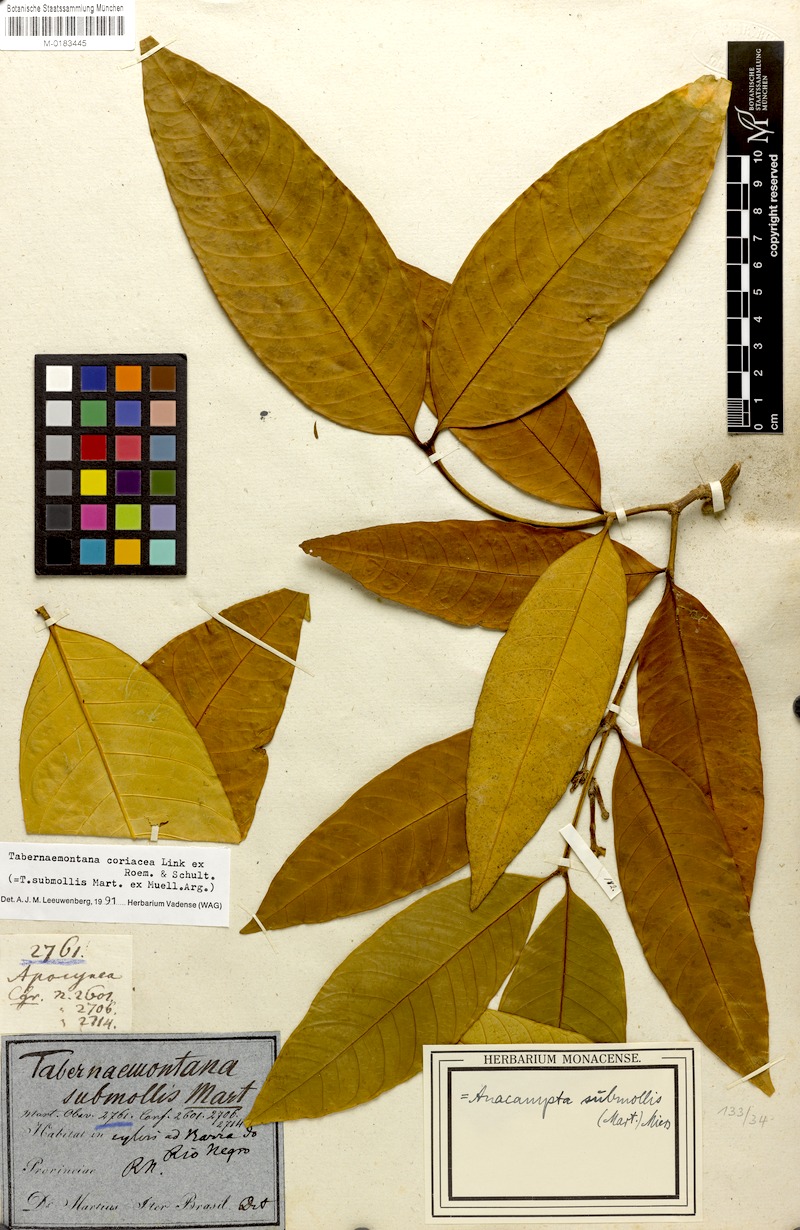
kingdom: Plantae
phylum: Tracheophyta
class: Magnoliopsida
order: Gentianales
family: Apocynaceae
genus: Tabernaemontana
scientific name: Tabernaemontana coriacea
